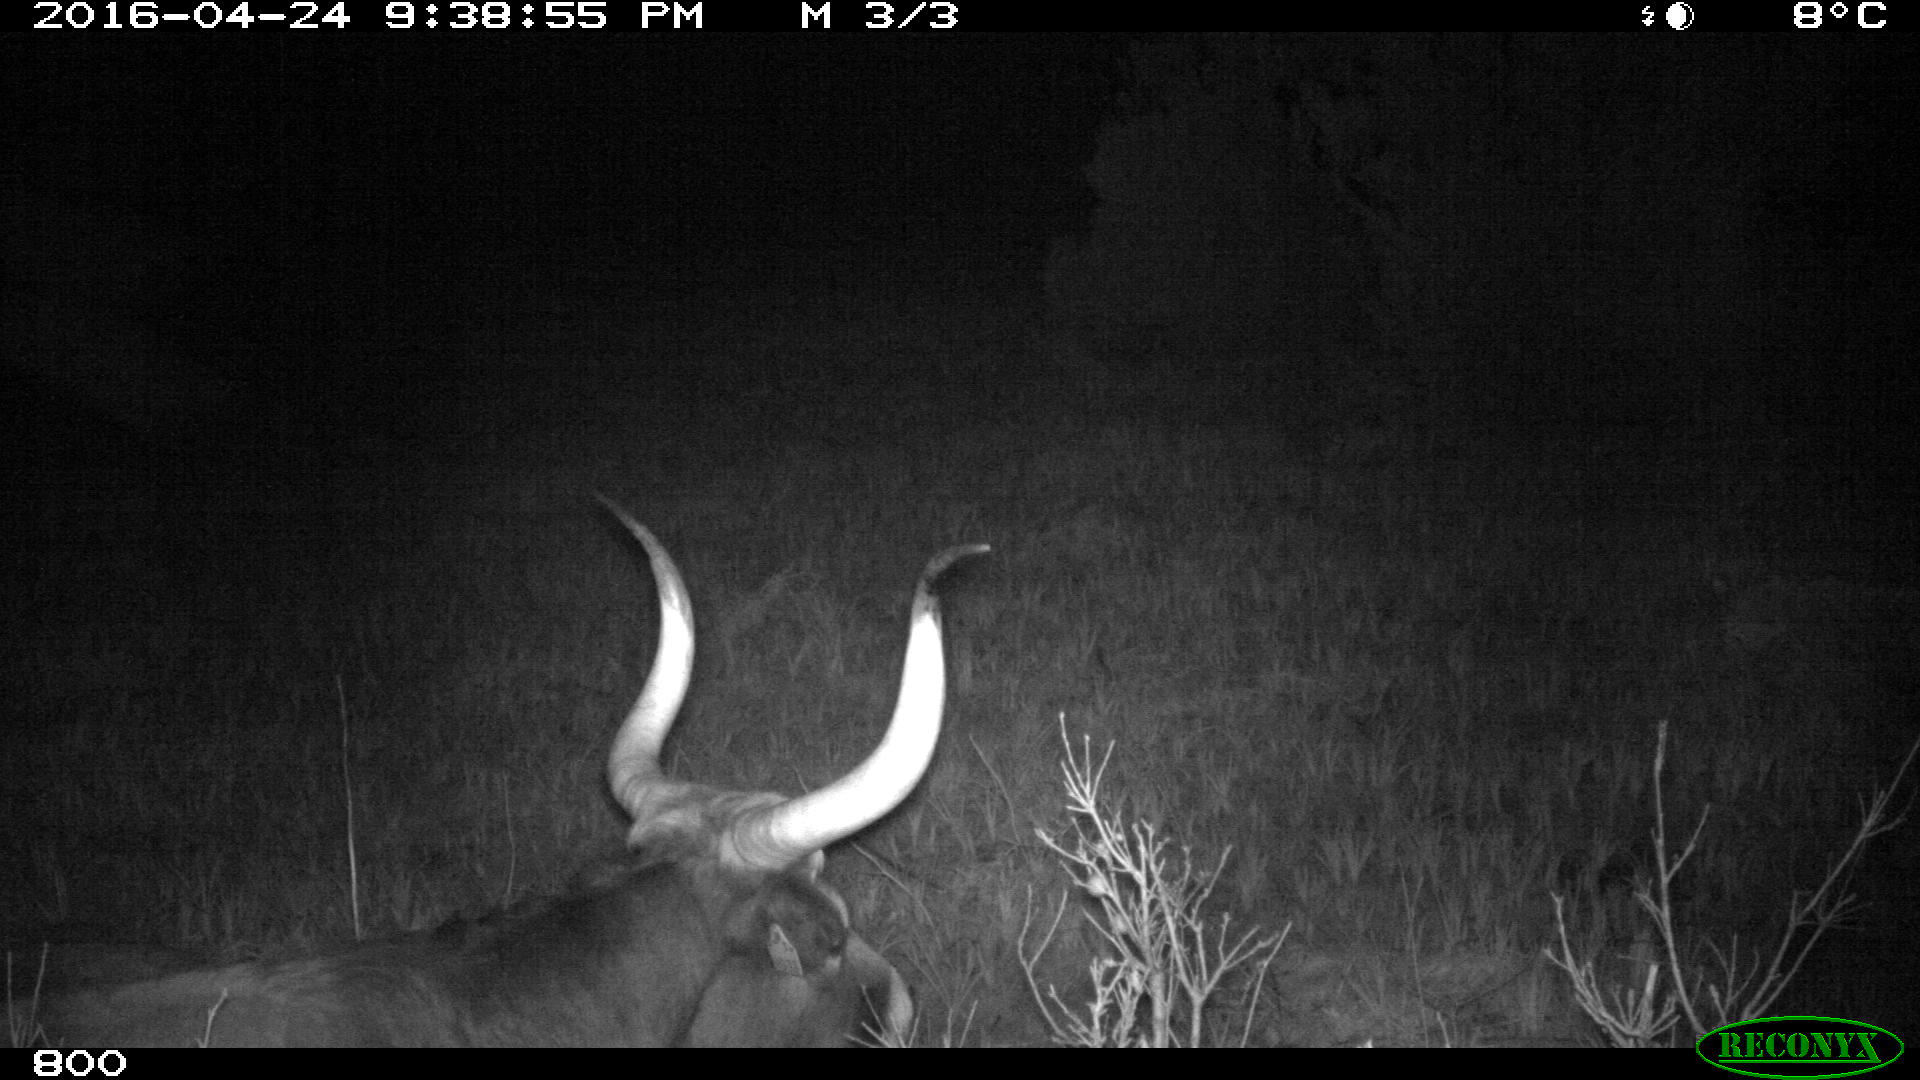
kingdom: Animalia
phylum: Chordata
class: Mammalia
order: Artiodactyla
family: Bovidae
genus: Bos
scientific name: Bos taurus
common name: Domesticated cattle
